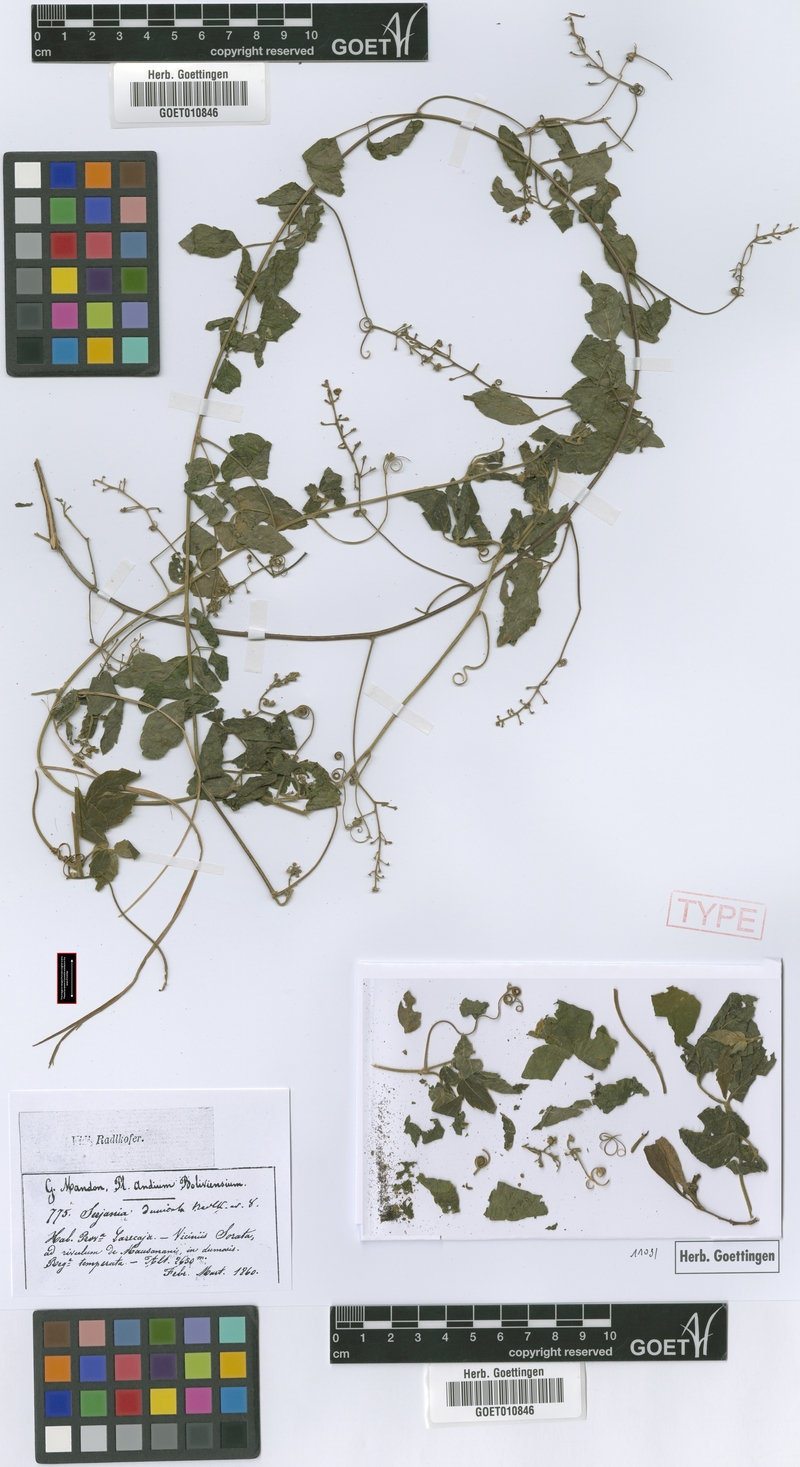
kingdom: Plantae
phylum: Tracheophyta
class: Magnoliopsida
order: Sapindales
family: Sapindaceae
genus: Serjania
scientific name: Serjania dumicola
